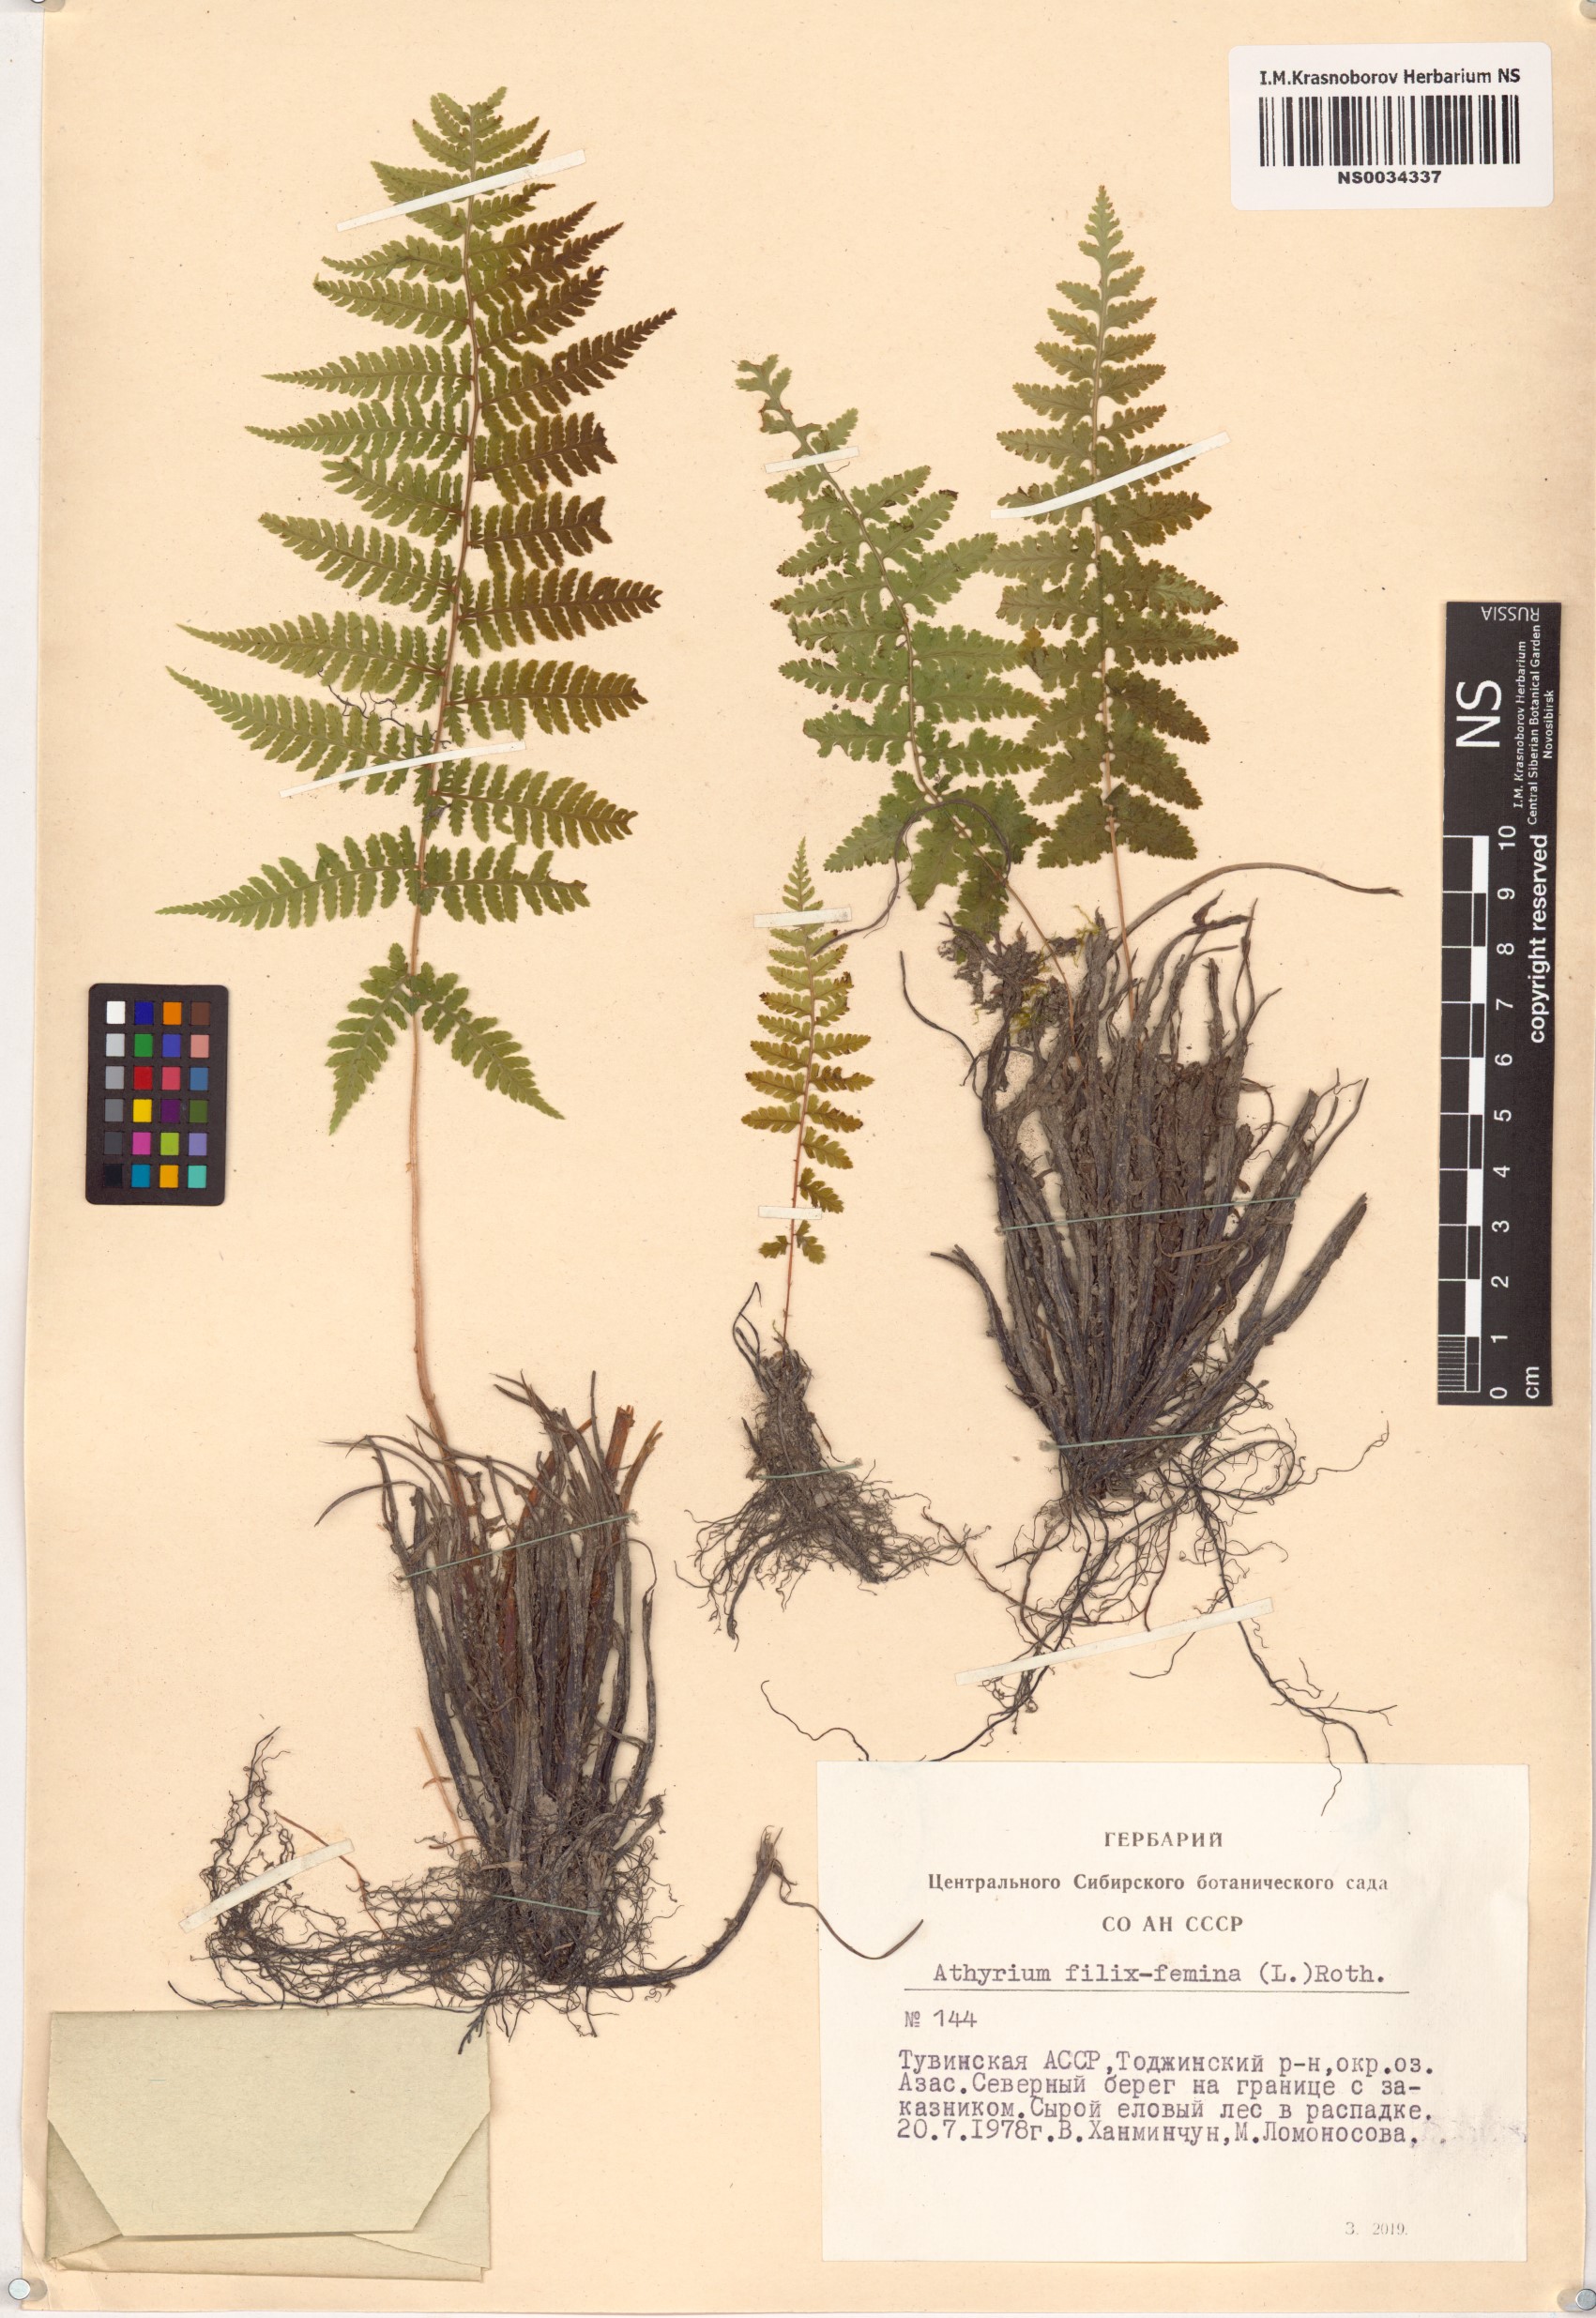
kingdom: Plantae
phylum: Tracheophyta
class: Polypodiopsida
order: Polypodiales
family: Athyriaceae
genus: Athyrium
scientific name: Athyrium filix-femina
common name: Lady fern
